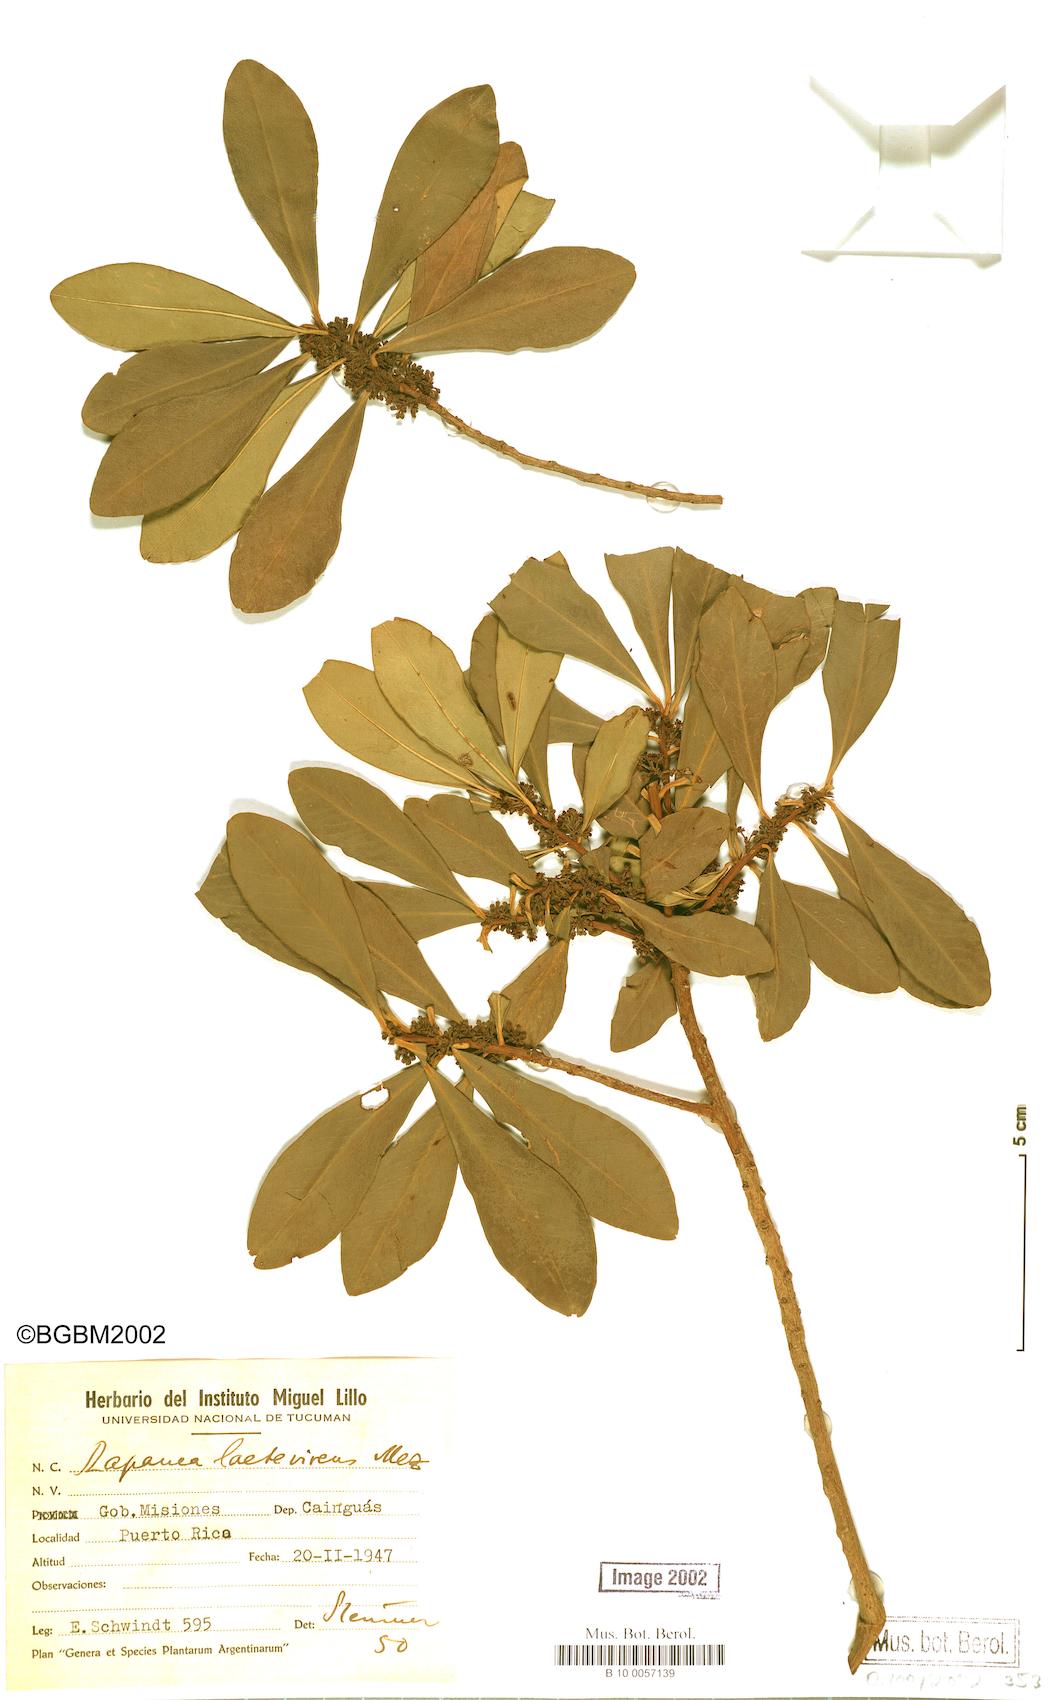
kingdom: Plantae
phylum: Tracheophyta
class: Magnoliopsida
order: Ericales
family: Primulaceae
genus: Myrsine
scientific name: Myrsine laetevirens
